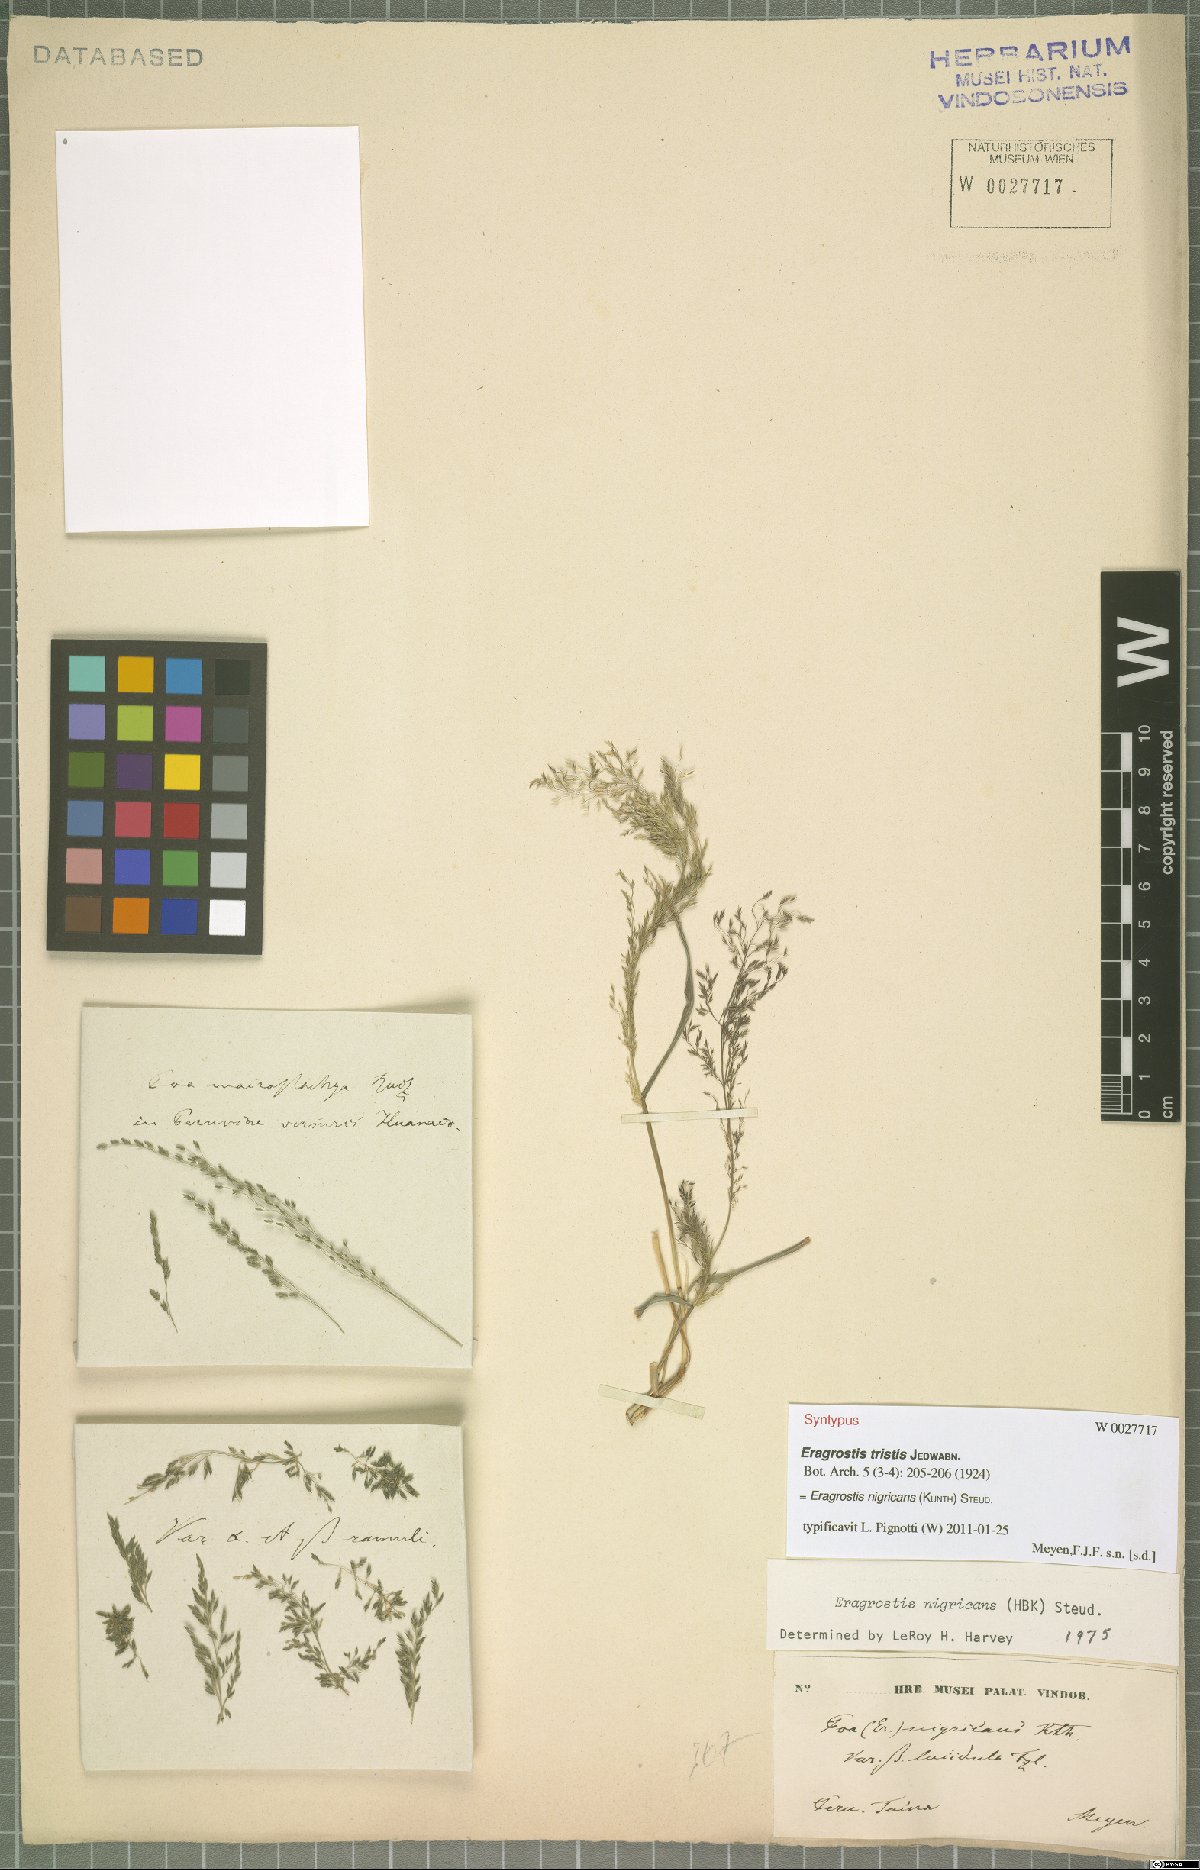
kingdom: Plantae
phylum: Tracheophyta
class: Liliopsida
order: Poales
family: Poaceae
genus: Eragrostis
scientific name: Eragrostis nigricans
